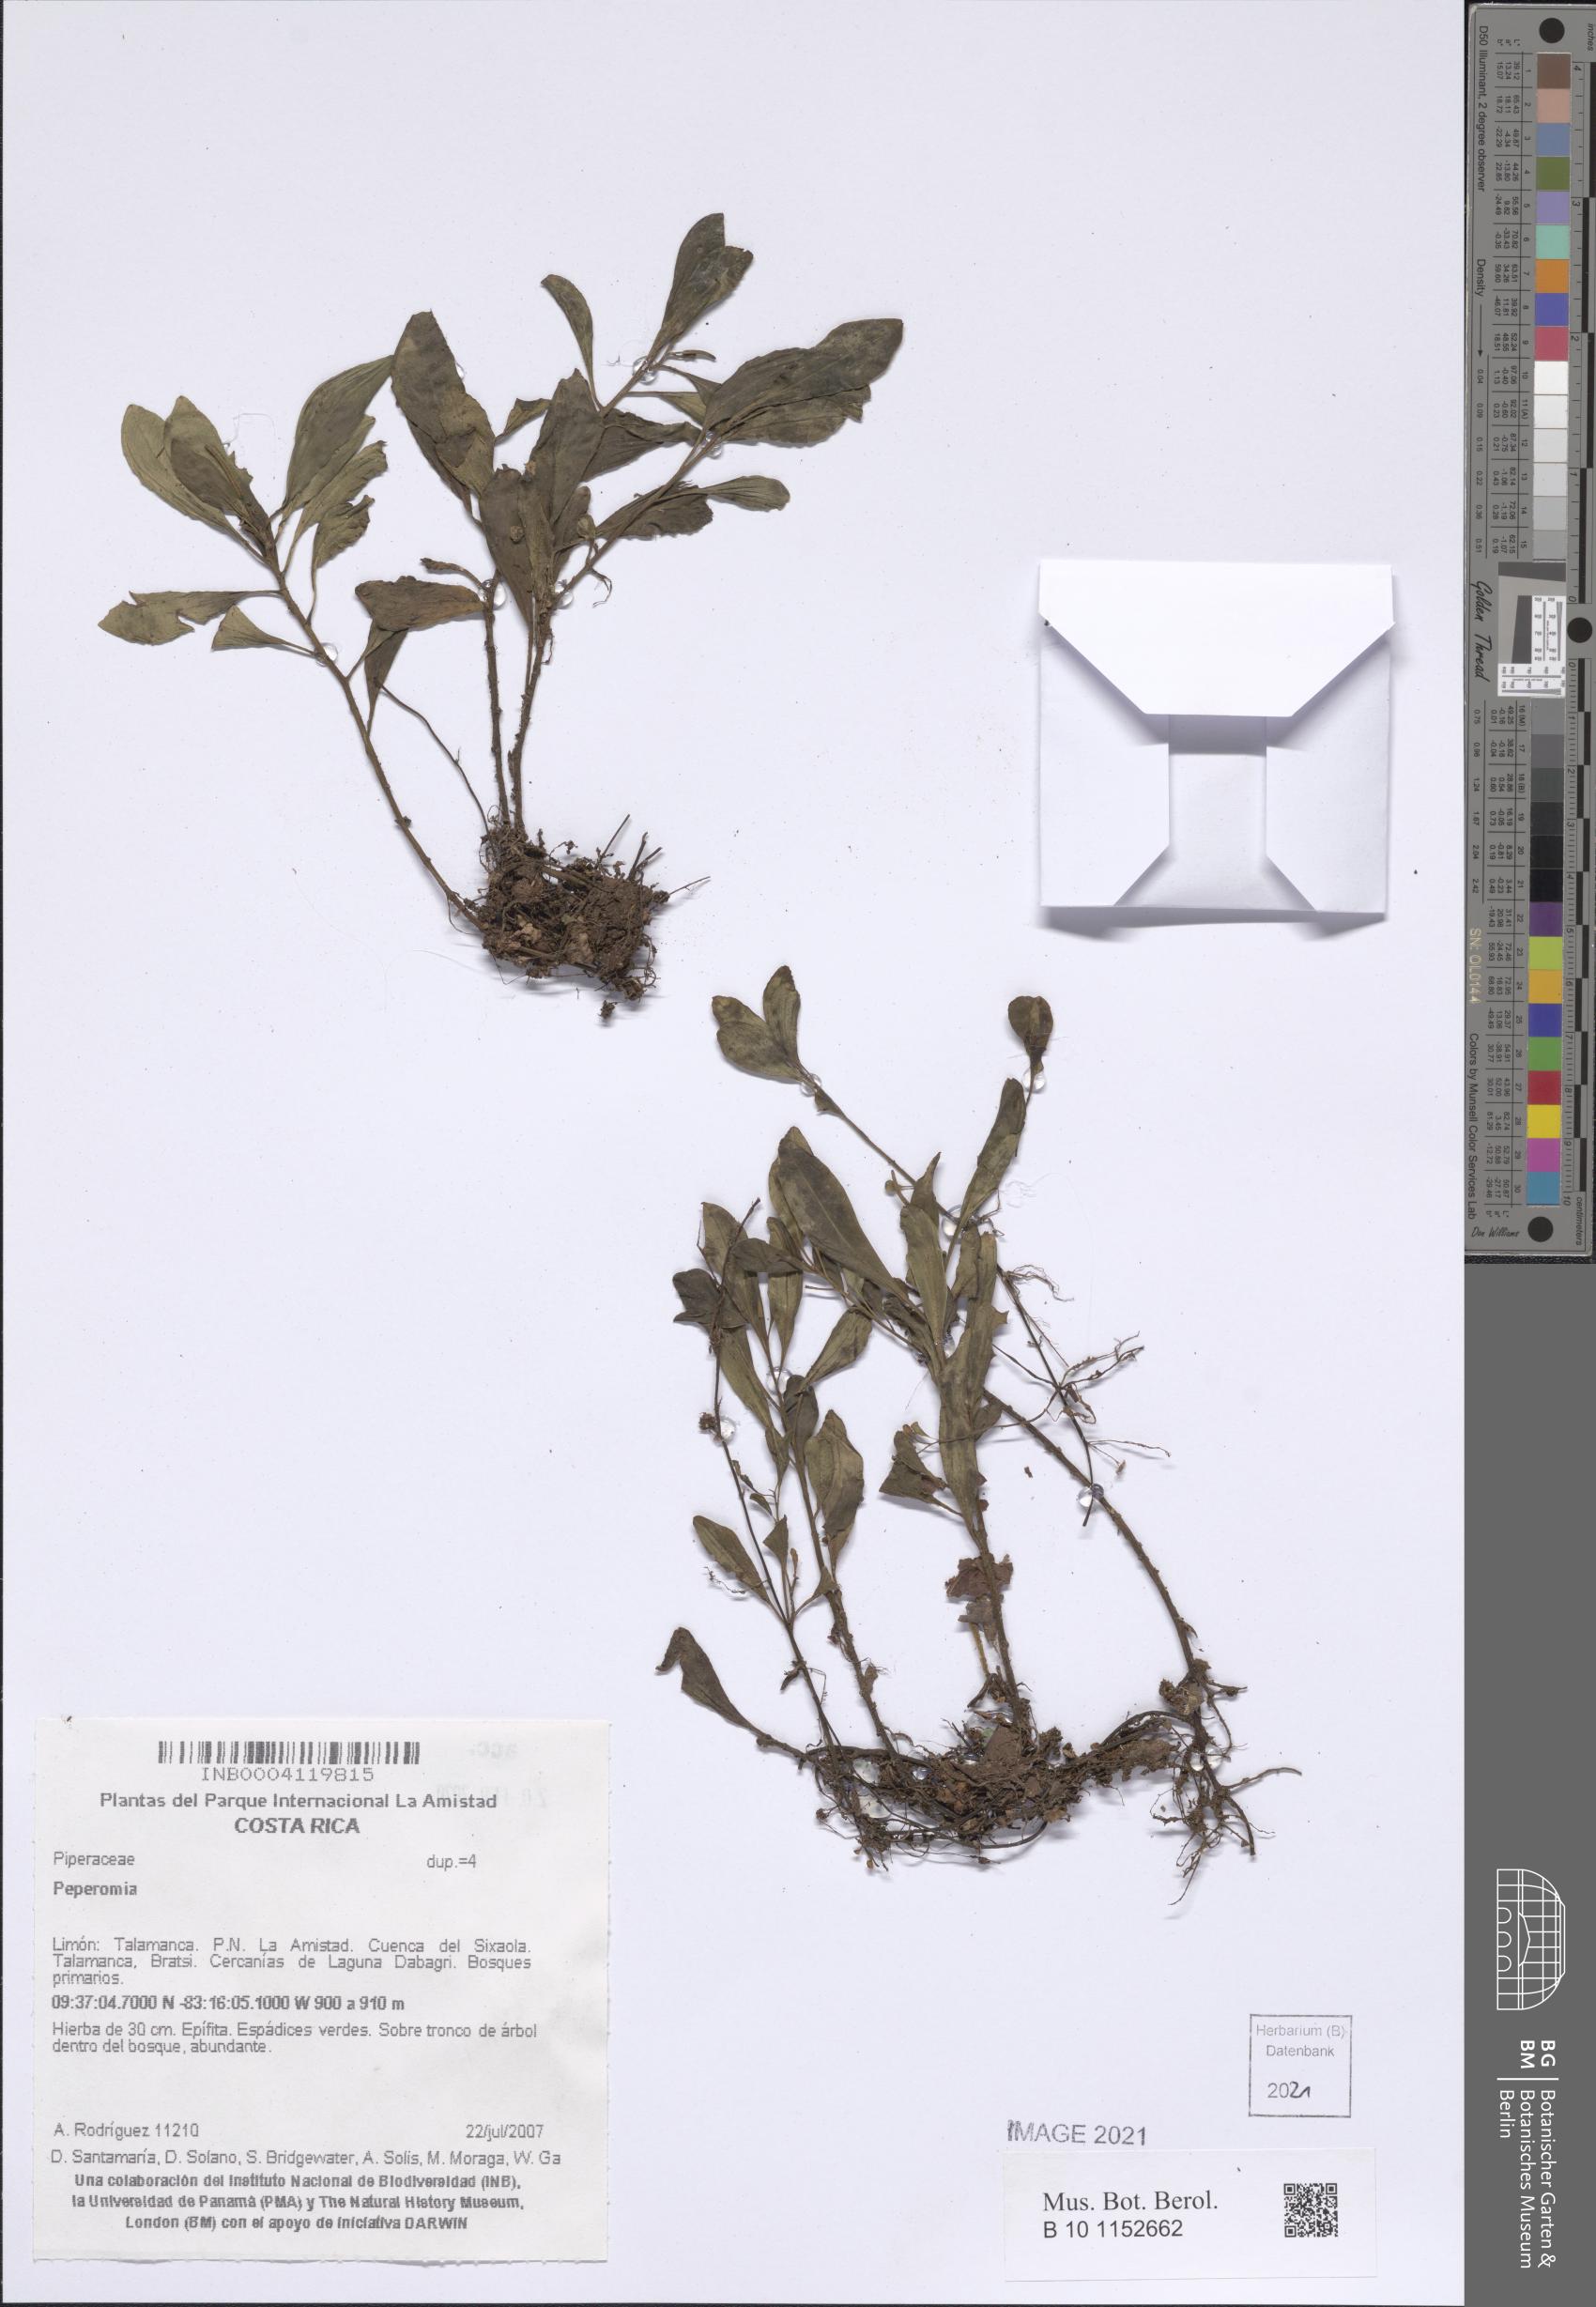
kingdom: Plantae
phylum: Tracheophyta
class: Magnoliopsida
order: Piperales
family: Piperaceae
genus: Peperomia
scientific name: Peperomia
